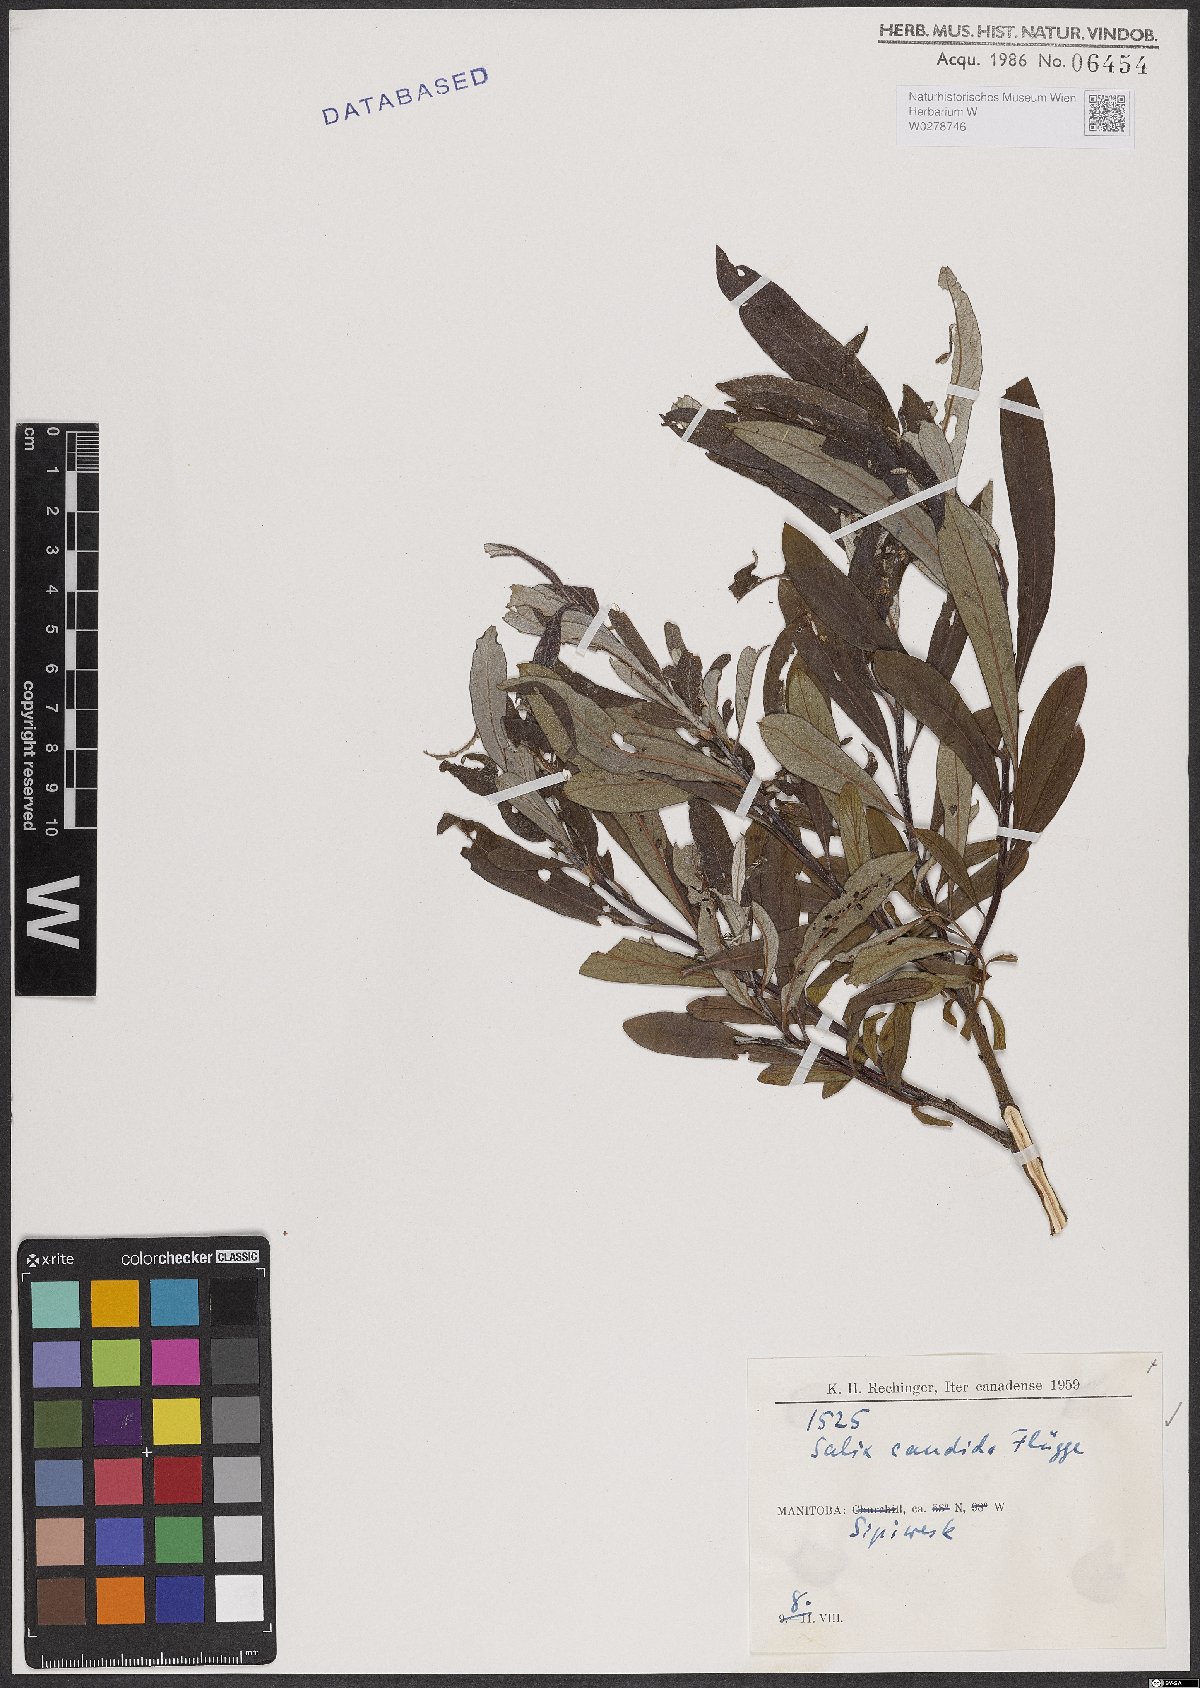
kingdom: Plantae
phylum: Tracheophyta
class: Magnoliopsida
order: Malpighiales
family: Salicaceae
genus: Salix
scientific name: Salix candida
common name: Hoary willow
